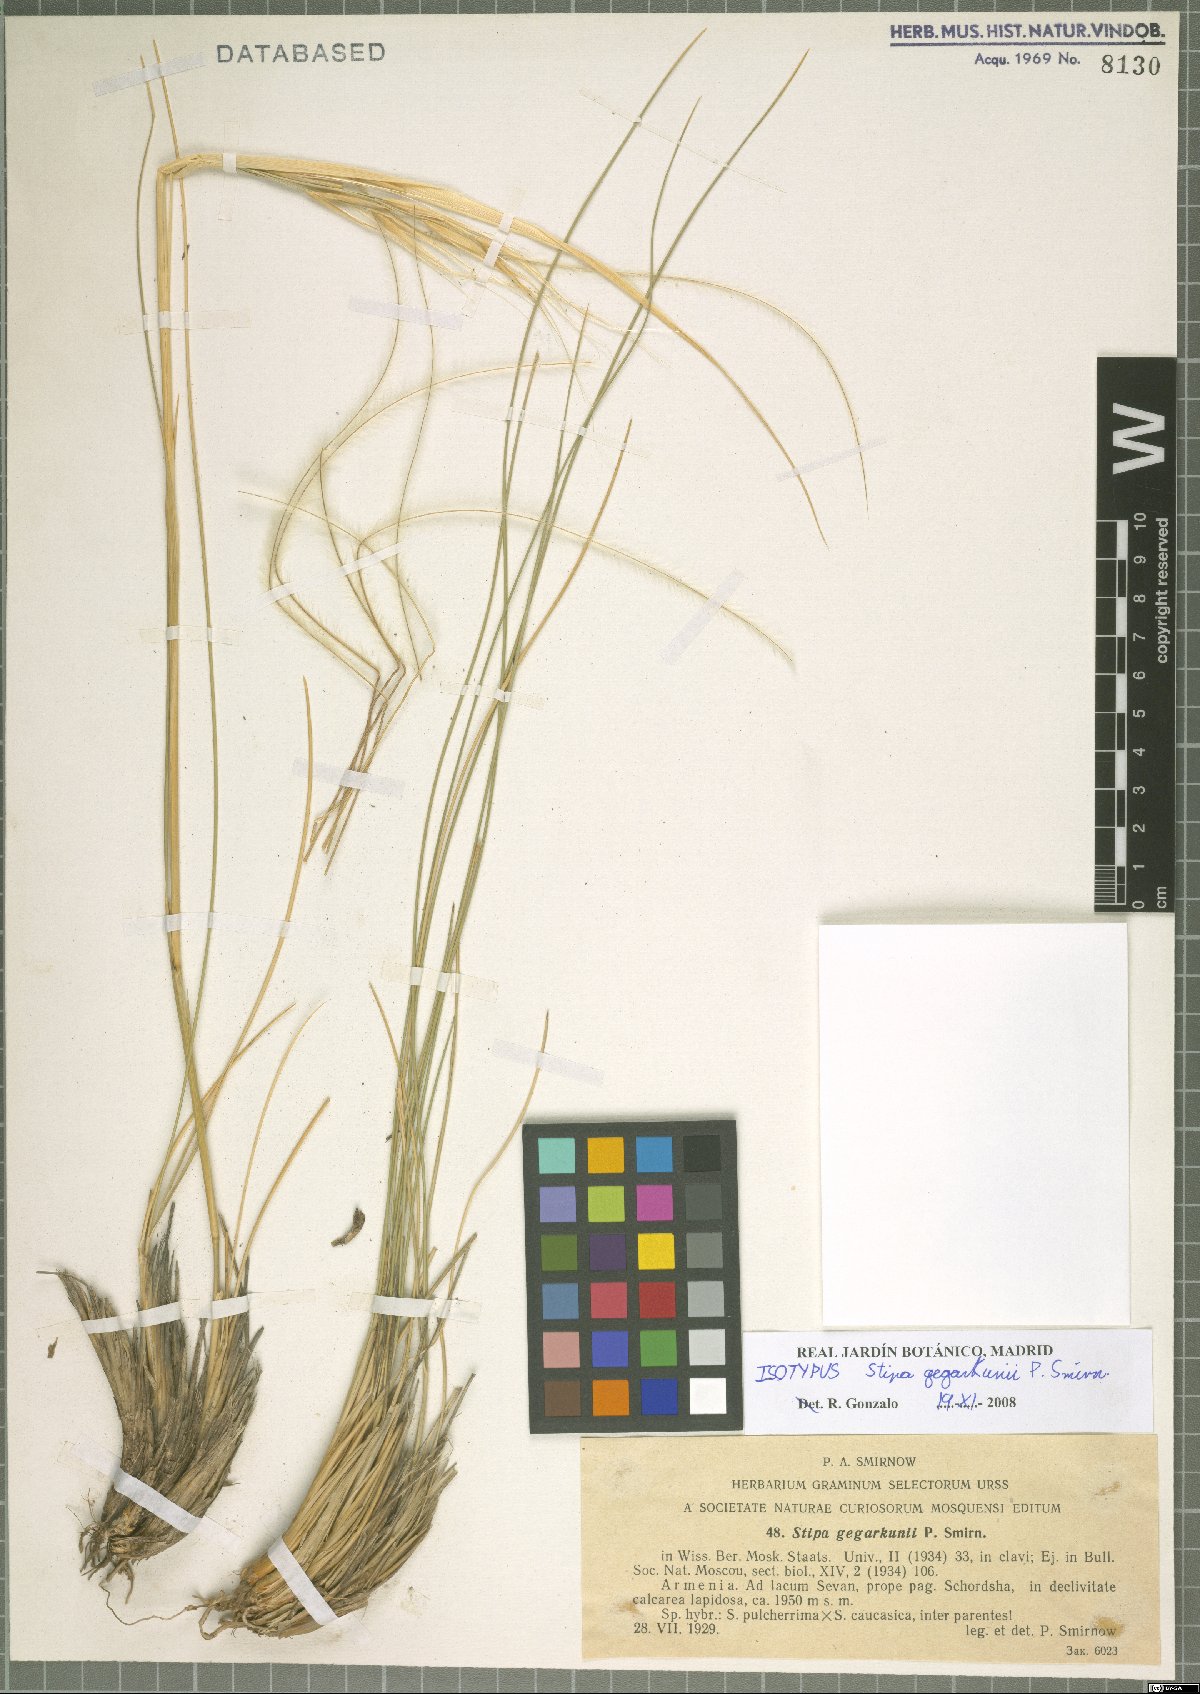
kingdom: Plantae
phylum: Tracheophyta
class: Liliopsida
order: Poales
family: Poaceae
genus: Stipa
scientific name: Stipa gegarkunii
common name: Gegarkunian feather-grass
